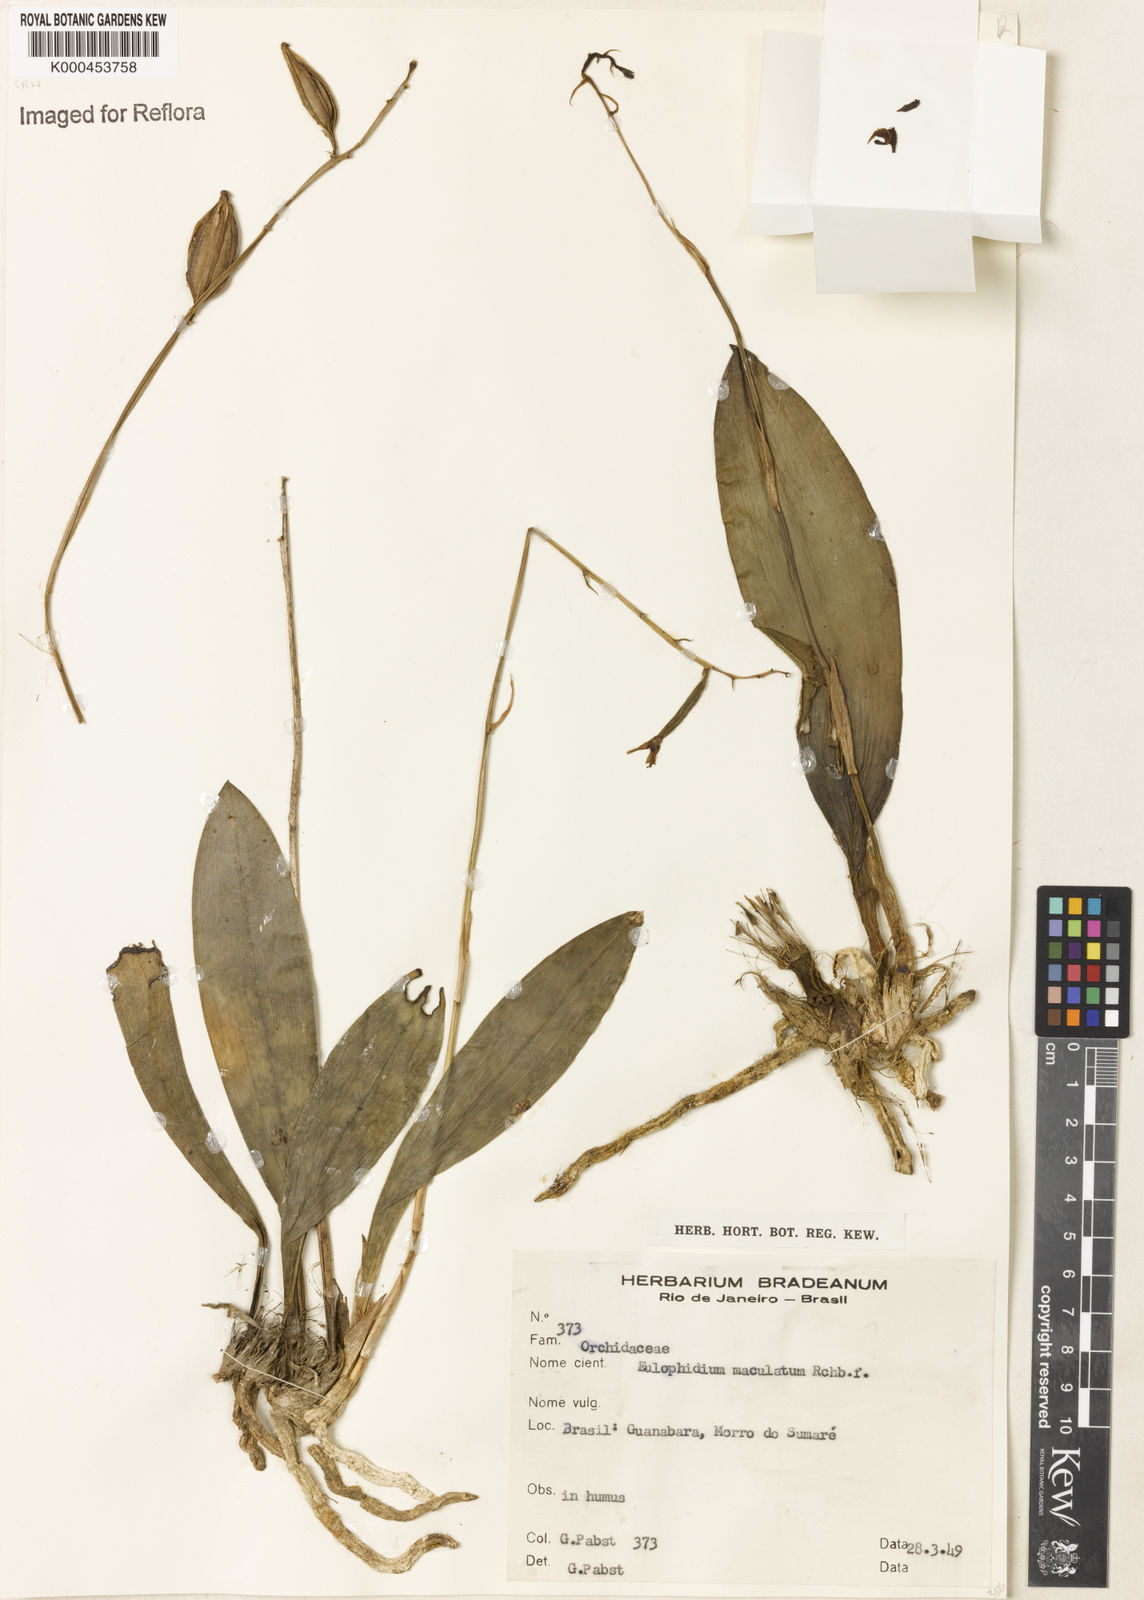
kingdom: Plantae
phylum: Tracheophyta
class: Liliopsida
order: Asparagales
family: Orchidaceae
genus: Eulophia
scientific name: Eulophia maculata
